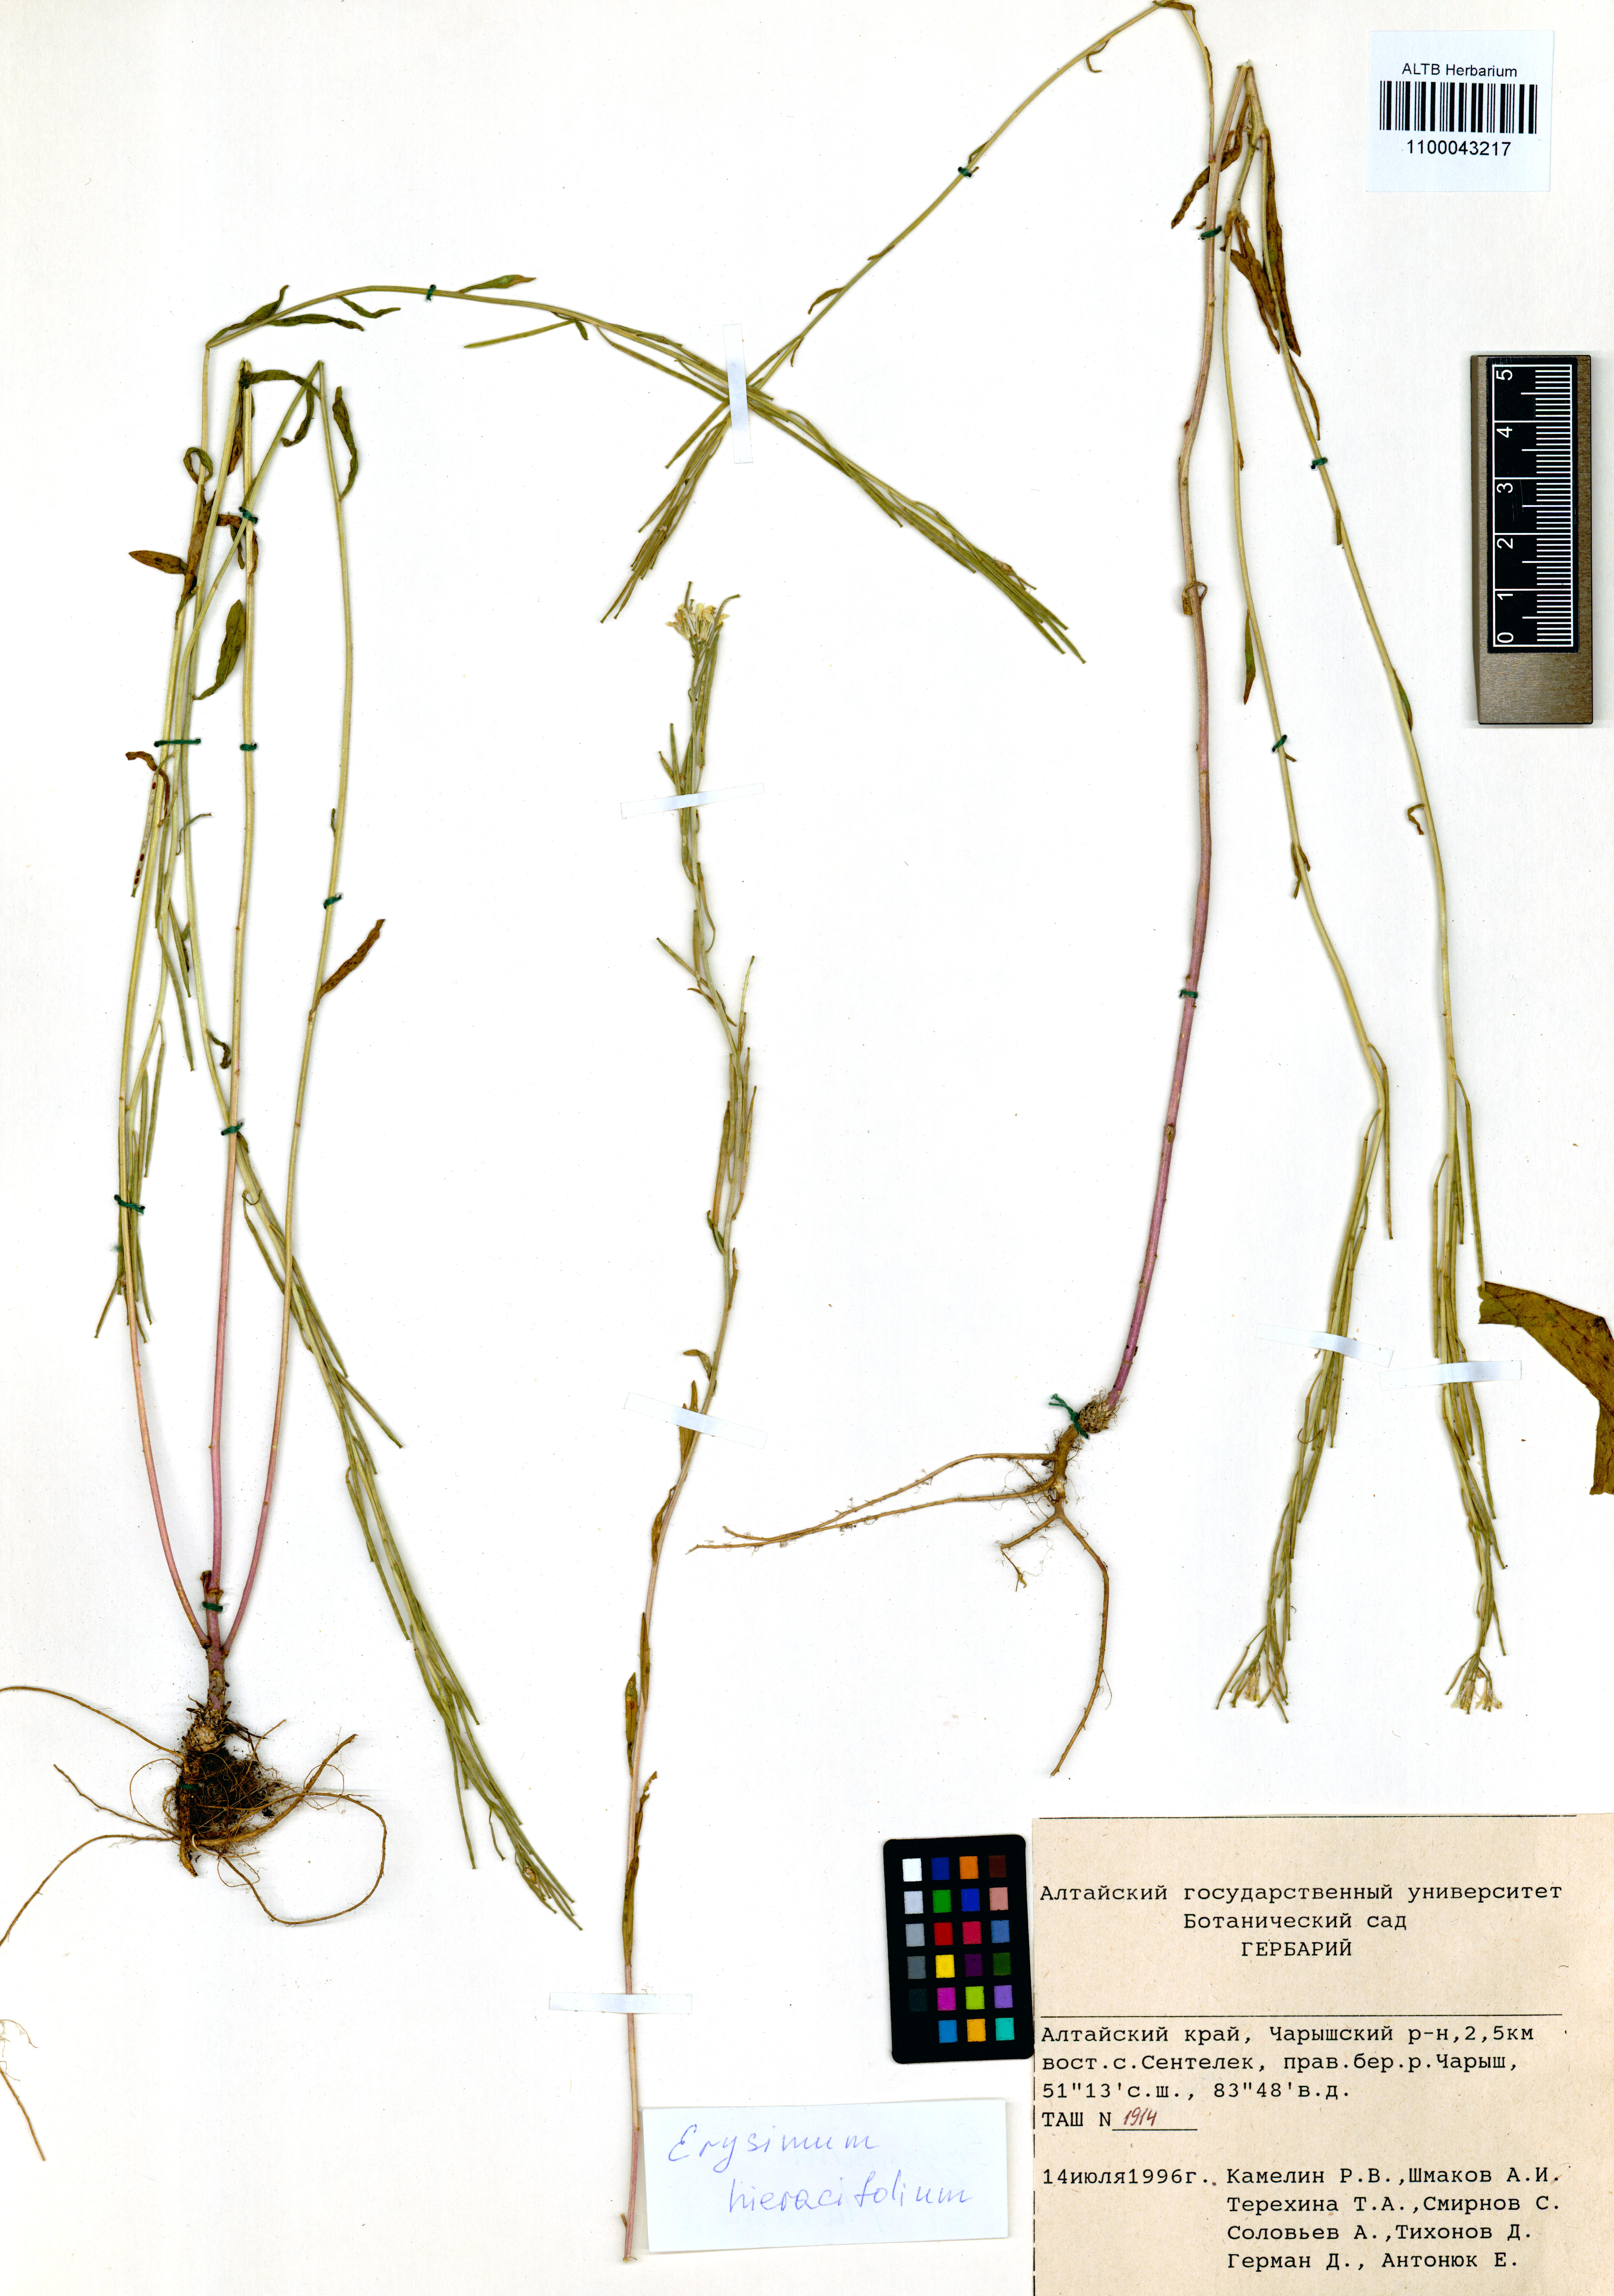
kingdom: Plantae
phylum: Tracheophyta
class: Magnoliopsida
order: Brassicales
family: Brassicaceae
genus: Erysimum
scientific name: Erysimum hieraciifolium
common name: European wallflower
